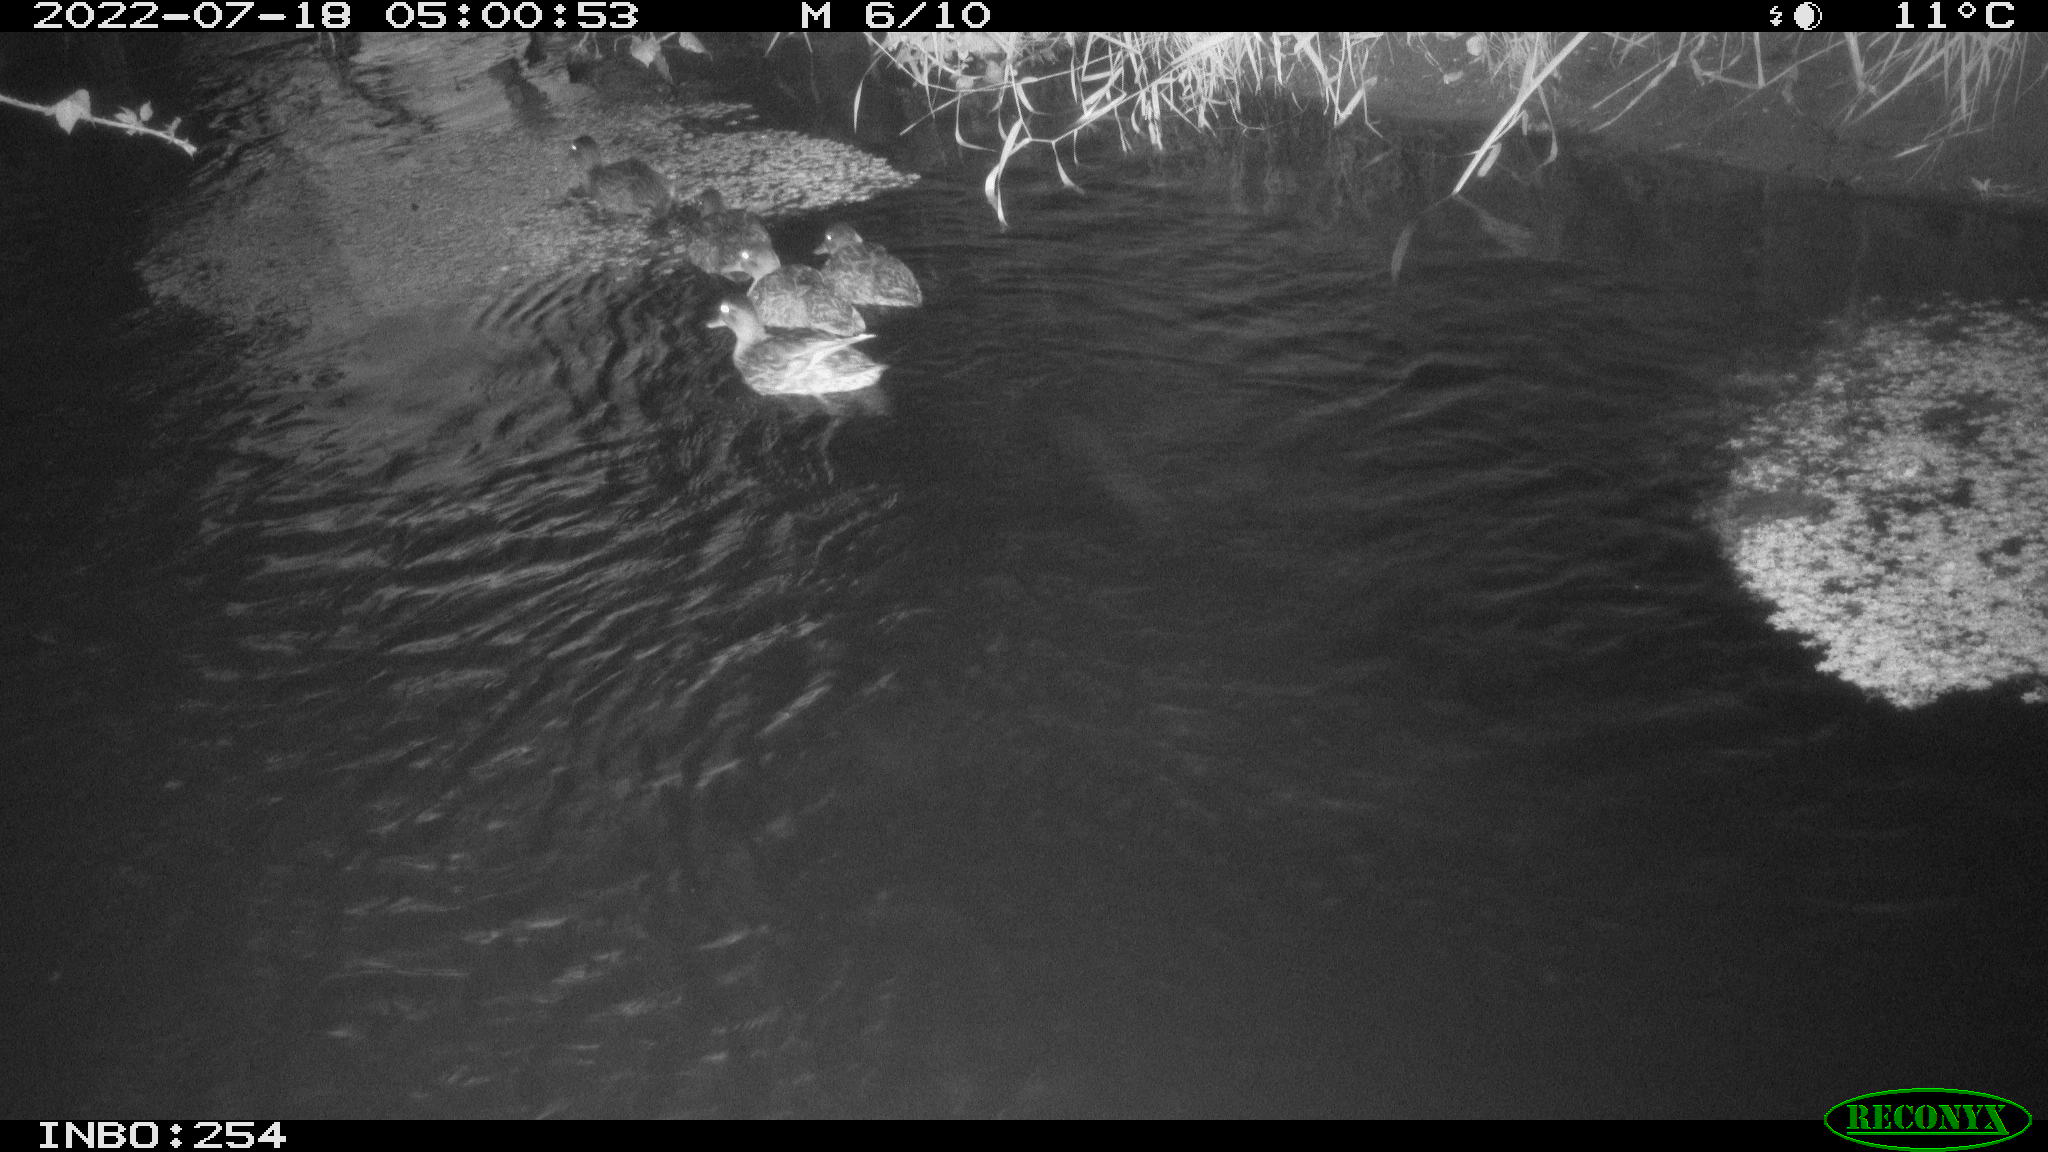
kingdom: Animalia
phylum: Chordata
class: Aves
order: Anseriformes
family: Anatidae
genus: Anas
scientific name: Anas platyrhynchos
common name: Mallard
